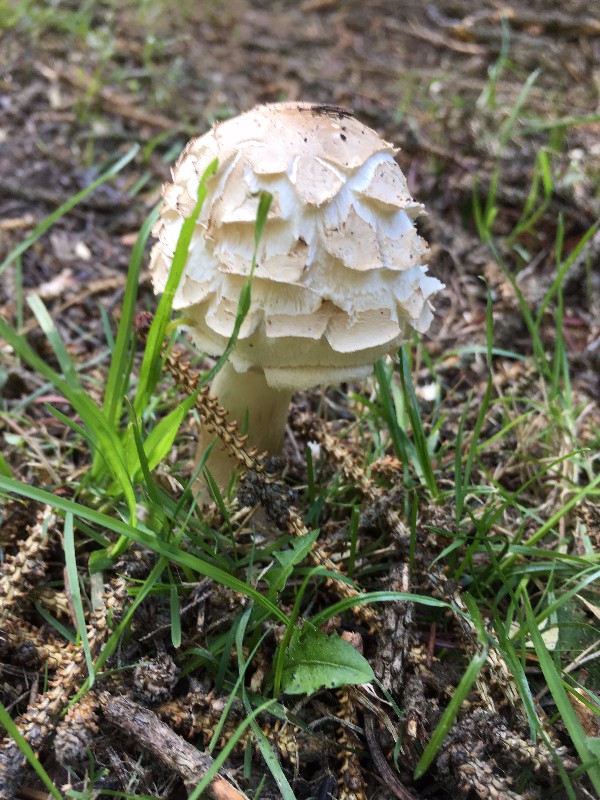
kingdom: Fungi
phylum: Basidiomycota
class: Agaricomycetes
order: Agaricales
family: Agaricaceae
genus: Chlorophyllum
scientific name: Chlorophyllum
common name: rabarberhat
